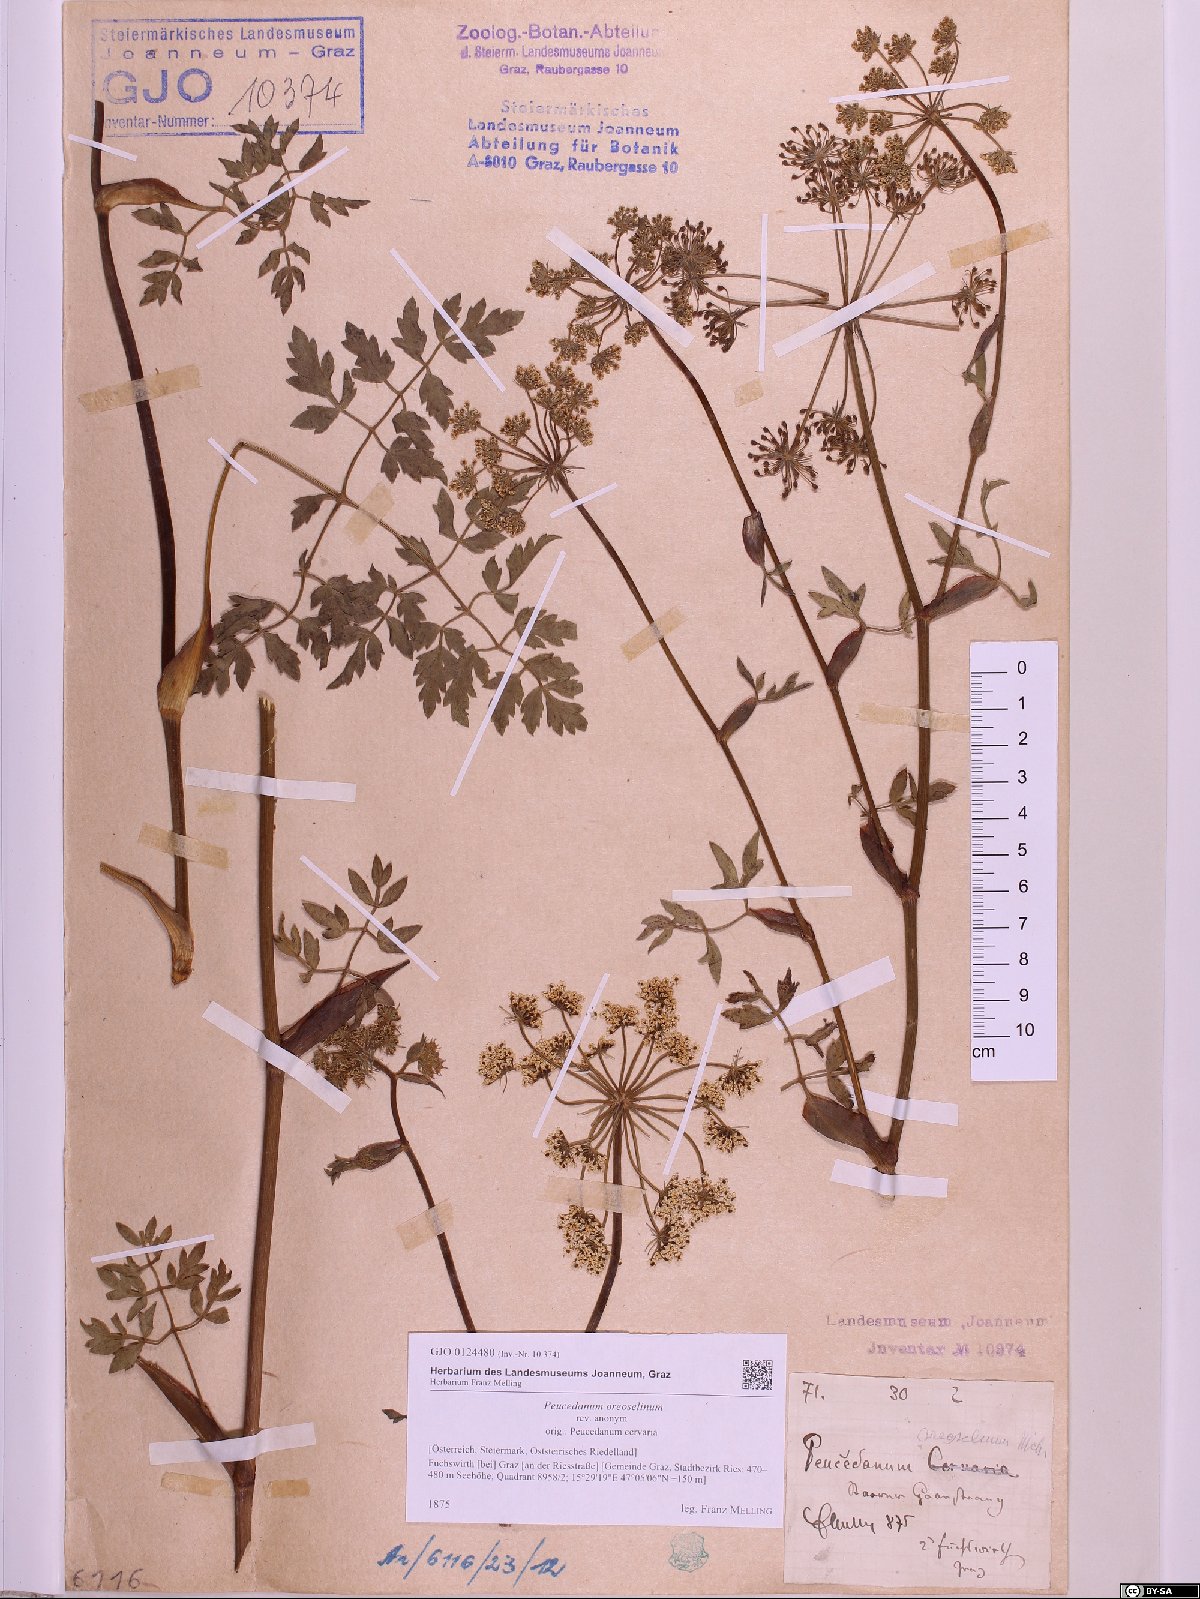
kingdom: Plantae
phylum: Tracheophyta
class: Magnoliopsida
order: Apiales
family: Apiaceae
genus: Oreoselinum
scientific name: Oreoselinum nigrum
